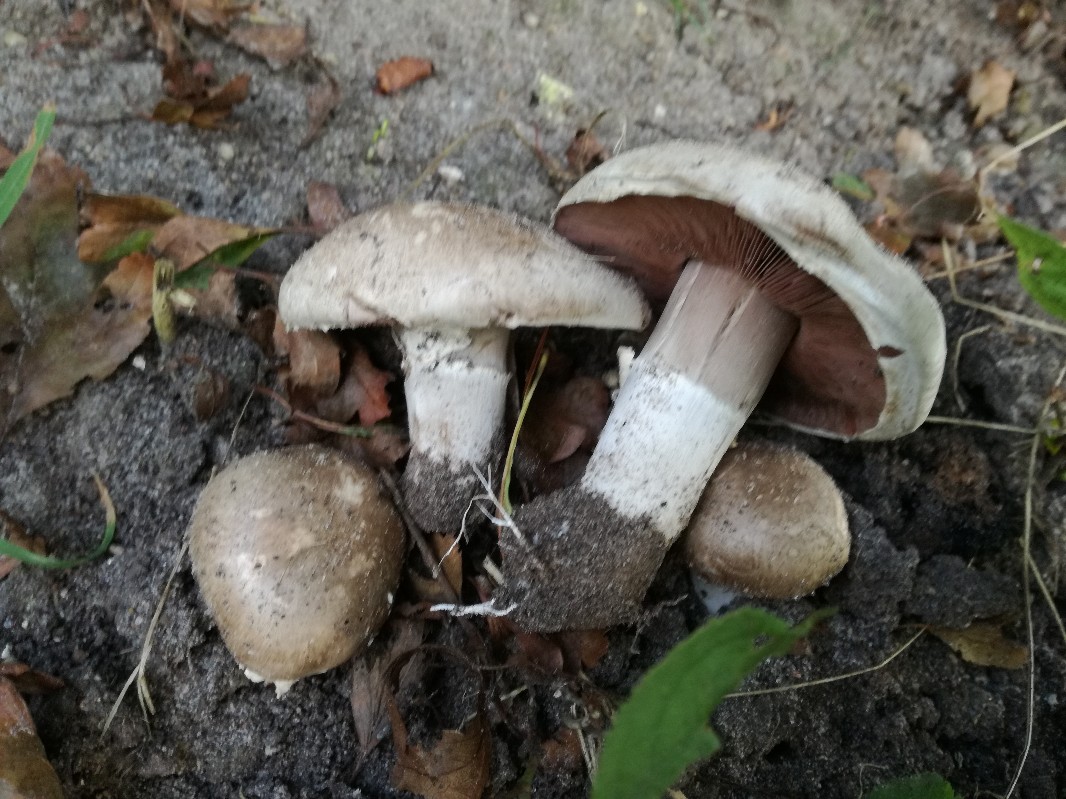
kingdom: Fungi
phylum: Basidiomycota
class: Agaricomycetes
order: Agaricales
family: Agaricaceae
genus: Agaricus
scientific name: Agaricus subfloccosus
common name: randskællet champignon
